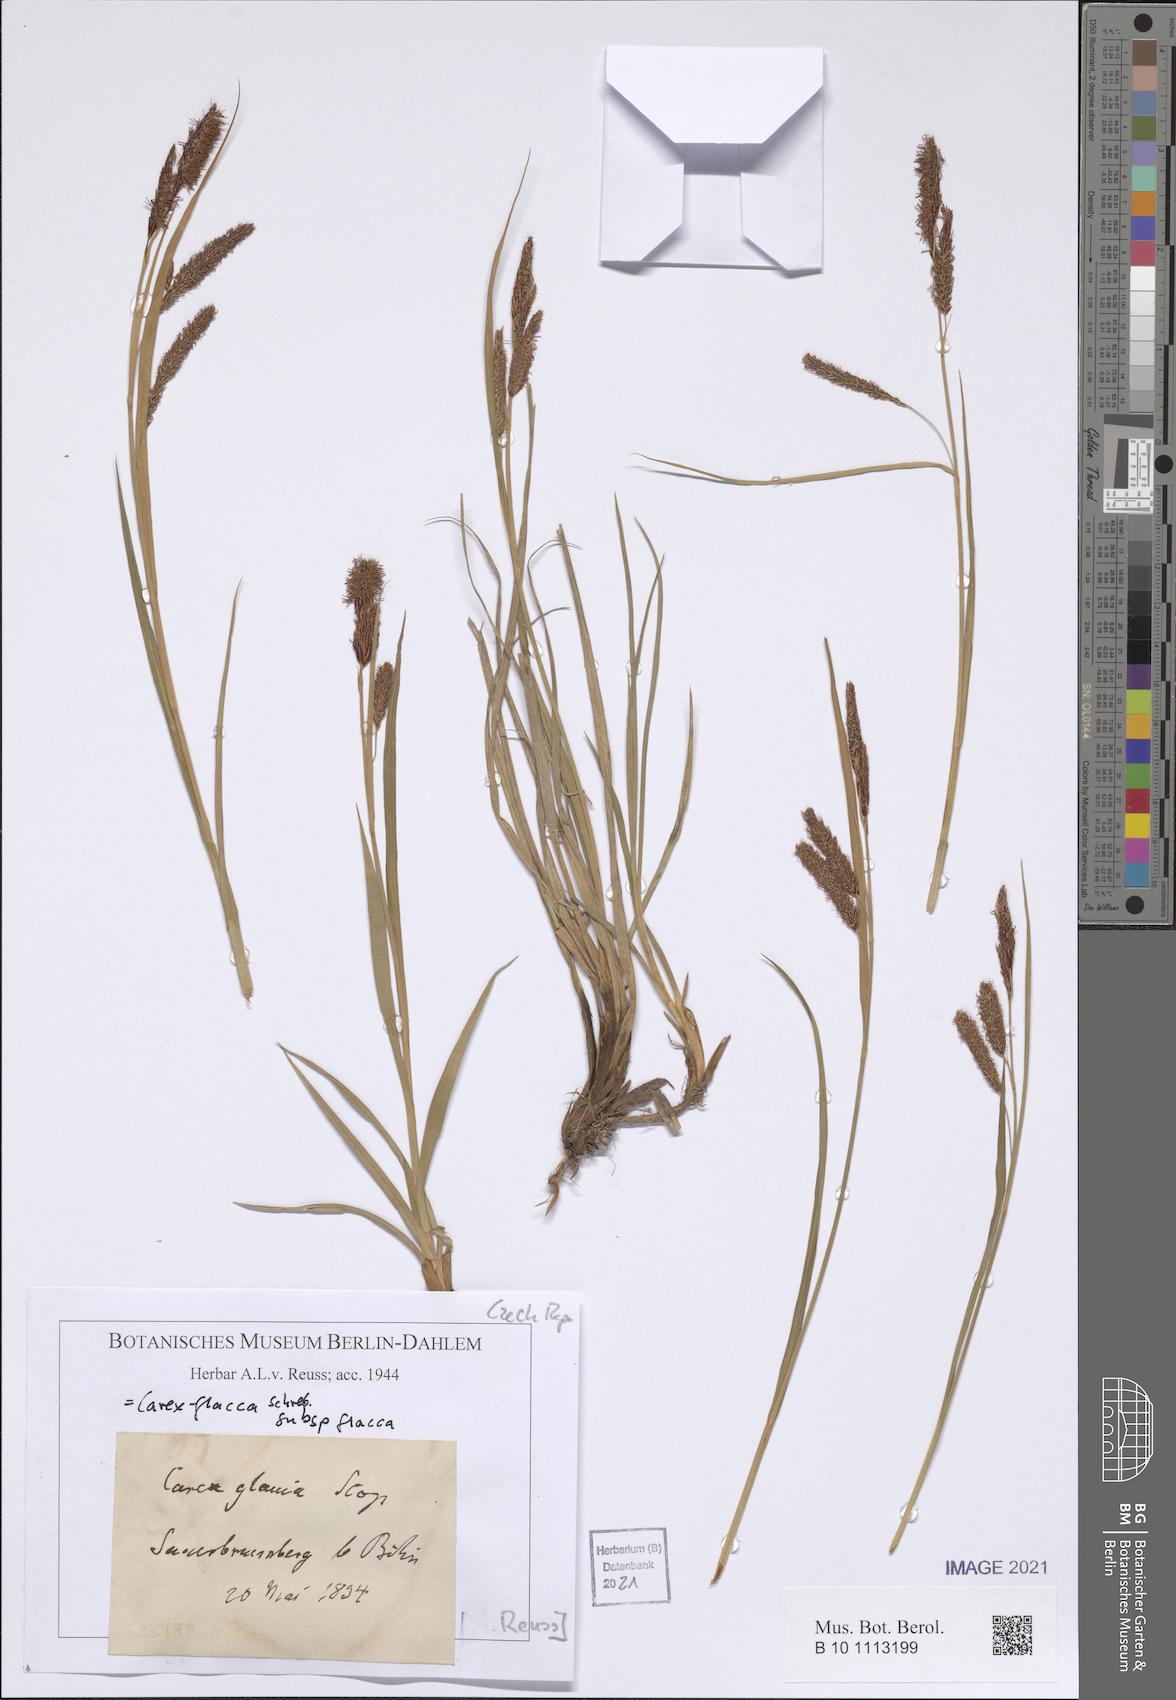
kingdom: Plantae
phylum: Tracheophyta
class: Liliopsida
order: Poales
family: Cyperaceae
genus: Carex
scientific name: Carex flacca
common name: Glaucous sedge
